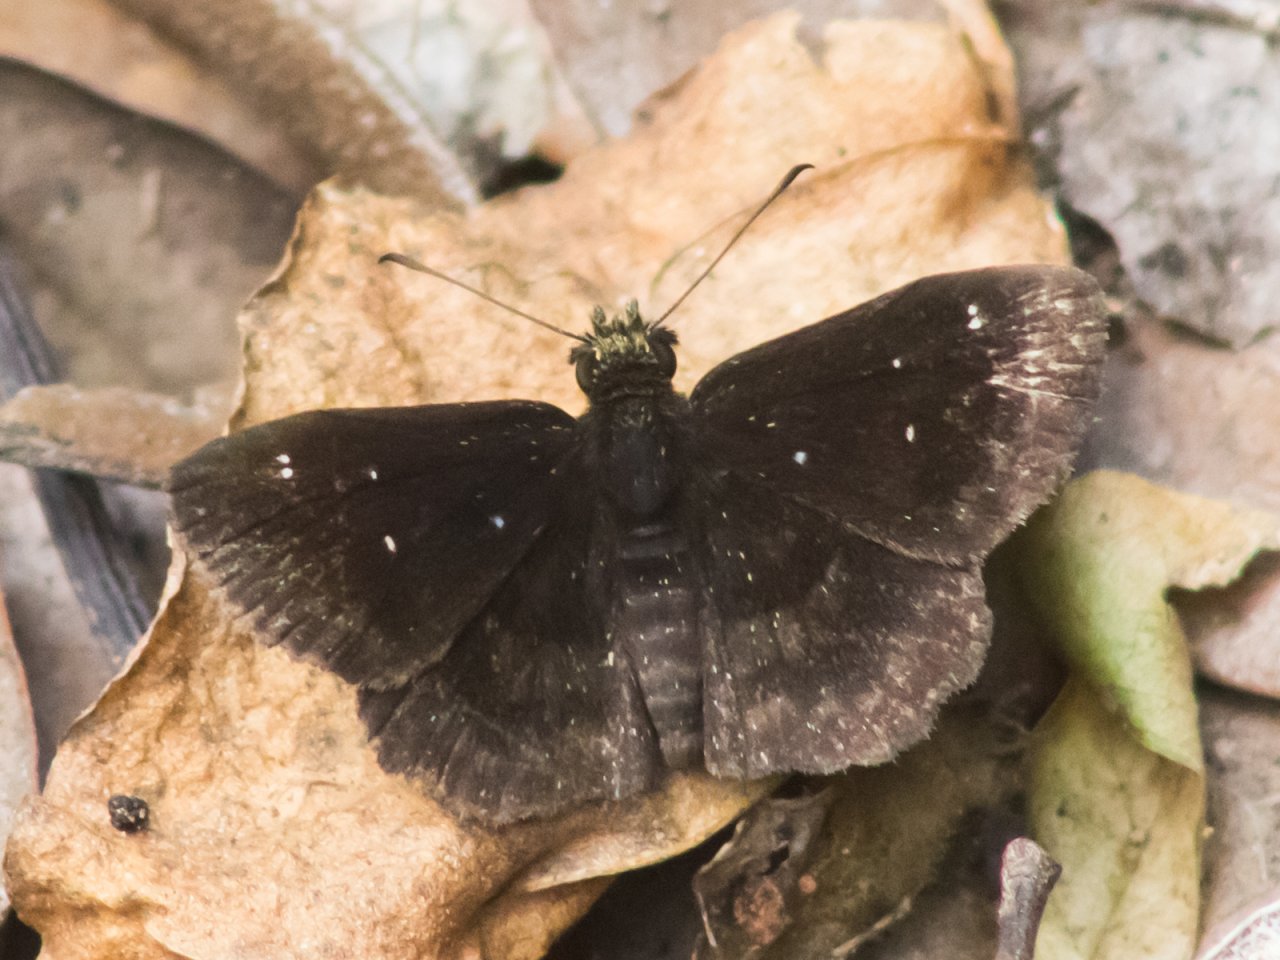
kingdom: Animalia
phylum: Arthropoda
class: Insecta
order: Lepidoptera
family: Hesperiidae
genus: Staphylus
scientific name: Staphylus mazans
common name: Mazans Scallopwing
